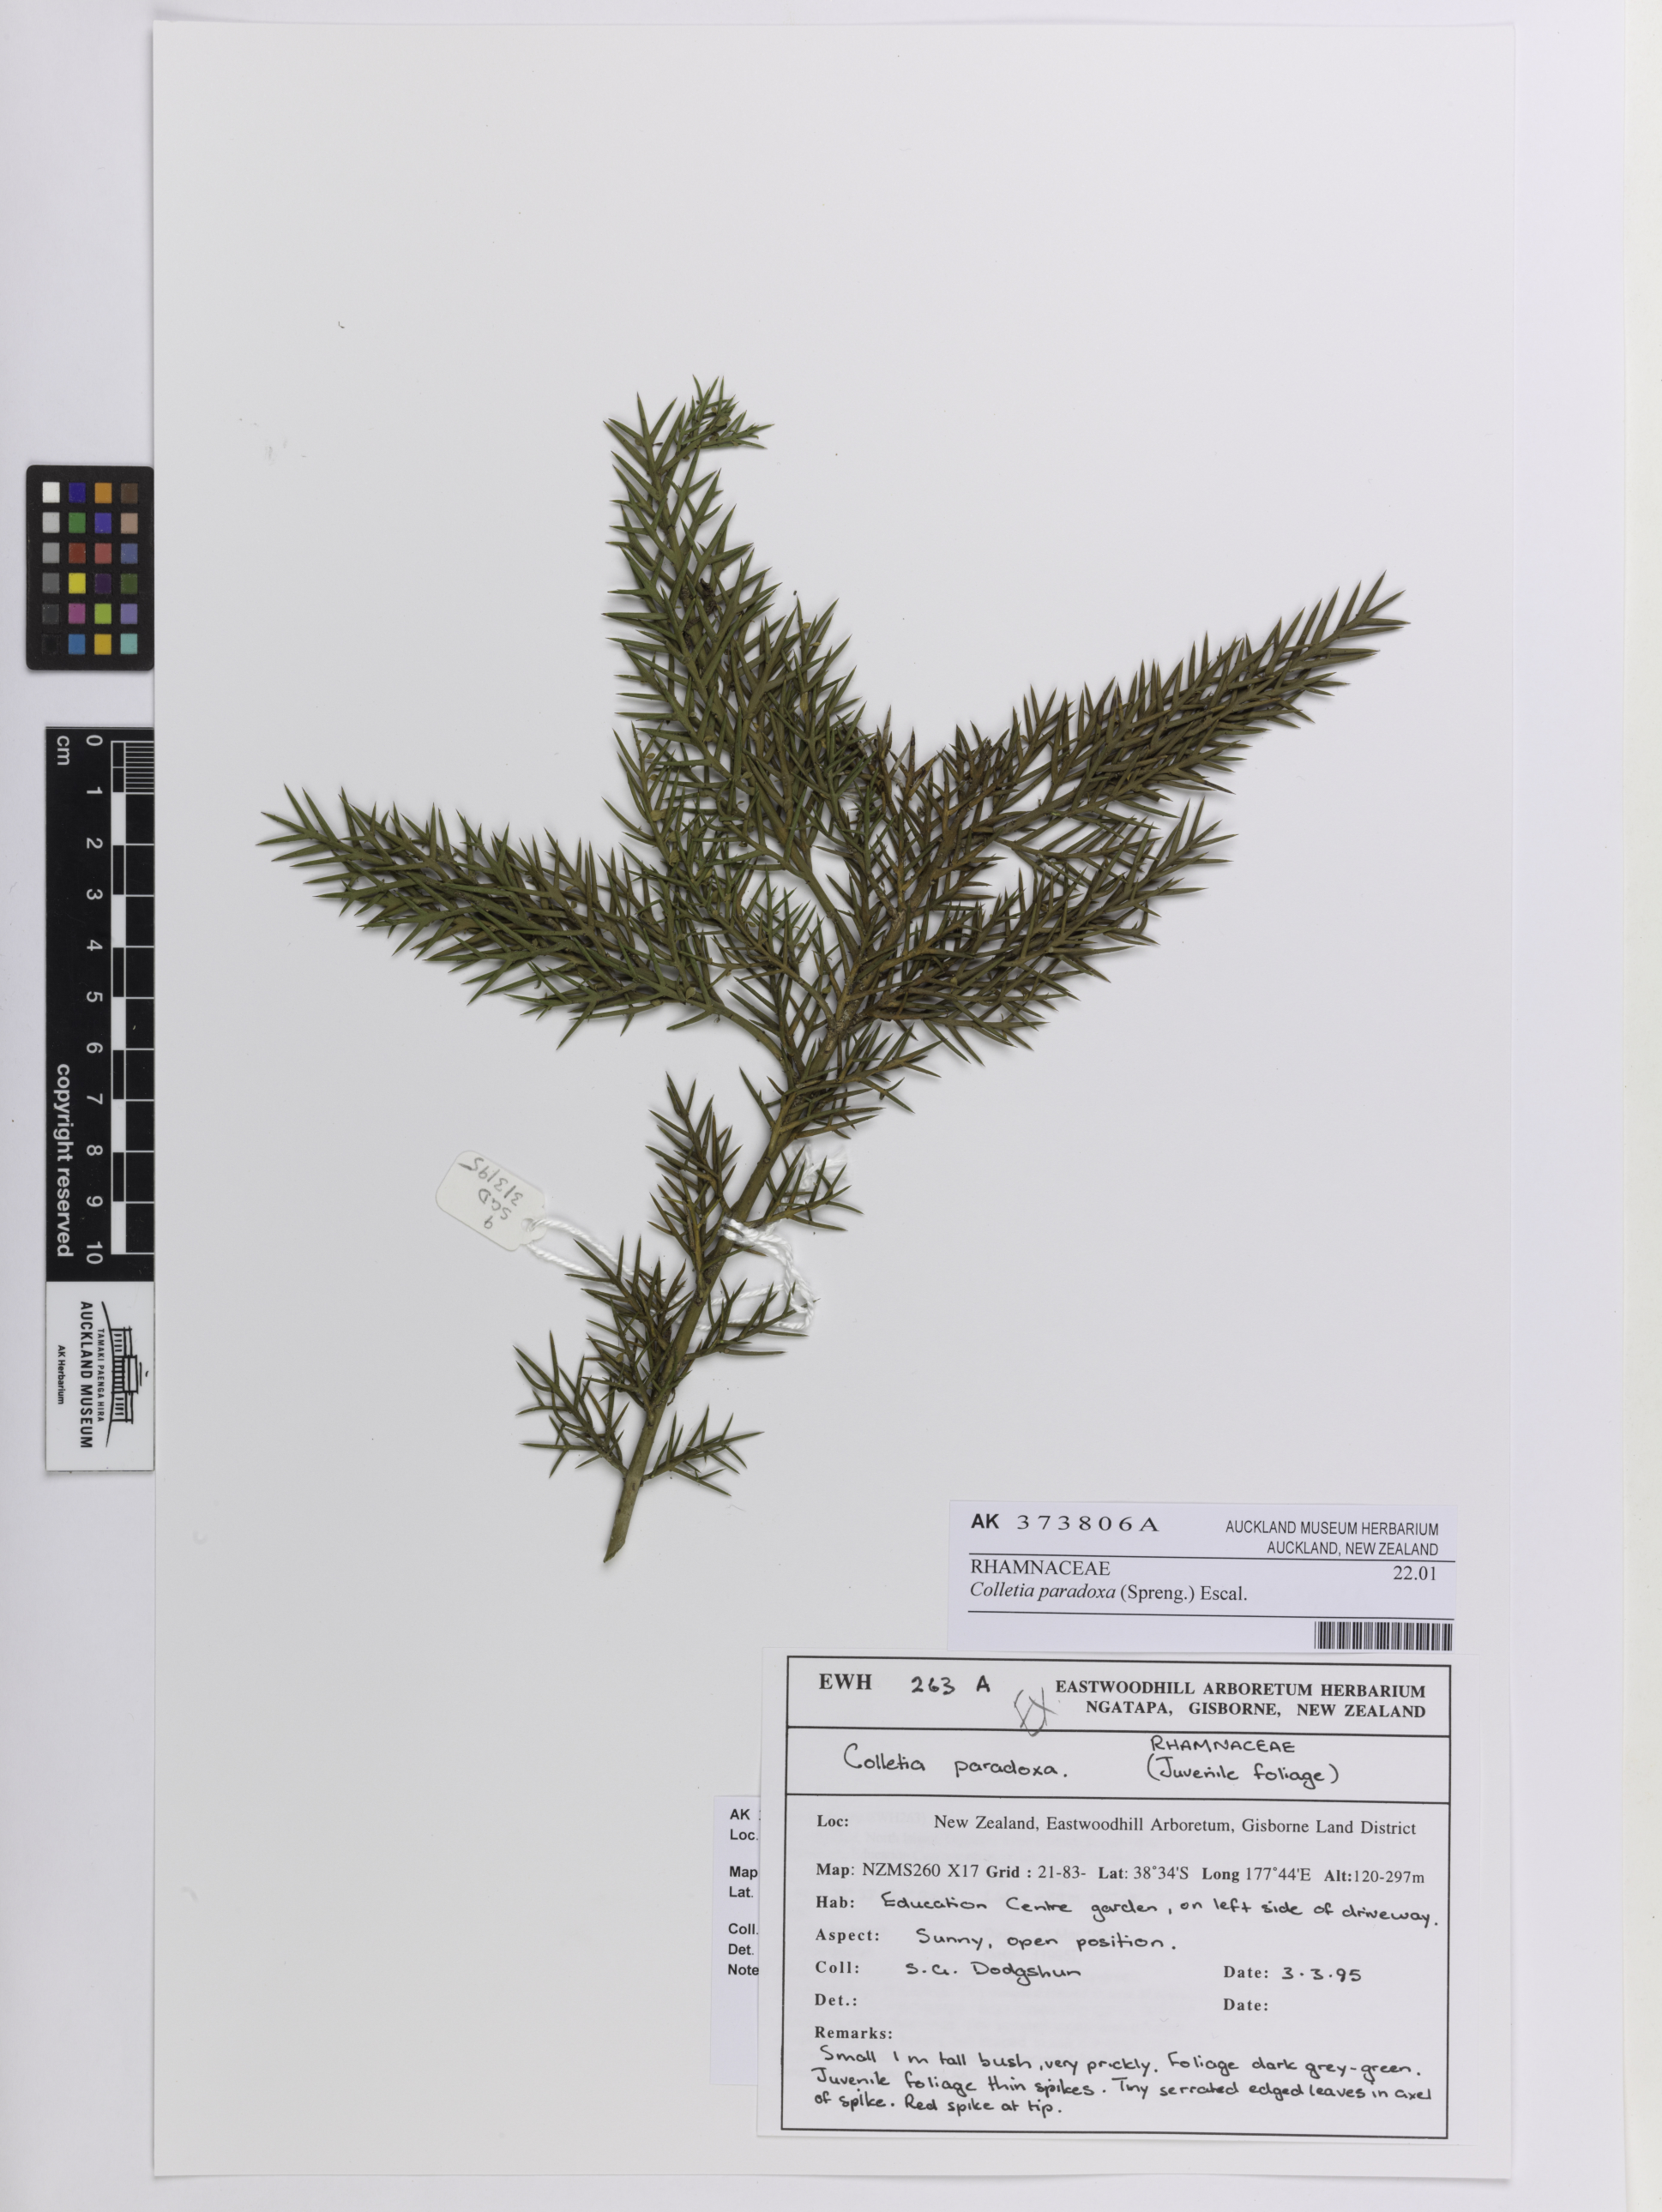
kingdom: Plantae
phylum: Tracheophyta
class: Magnoliopsida
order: Rosales
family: Rhamnaceae
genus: Colletia
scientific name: Colletia paradoxa
